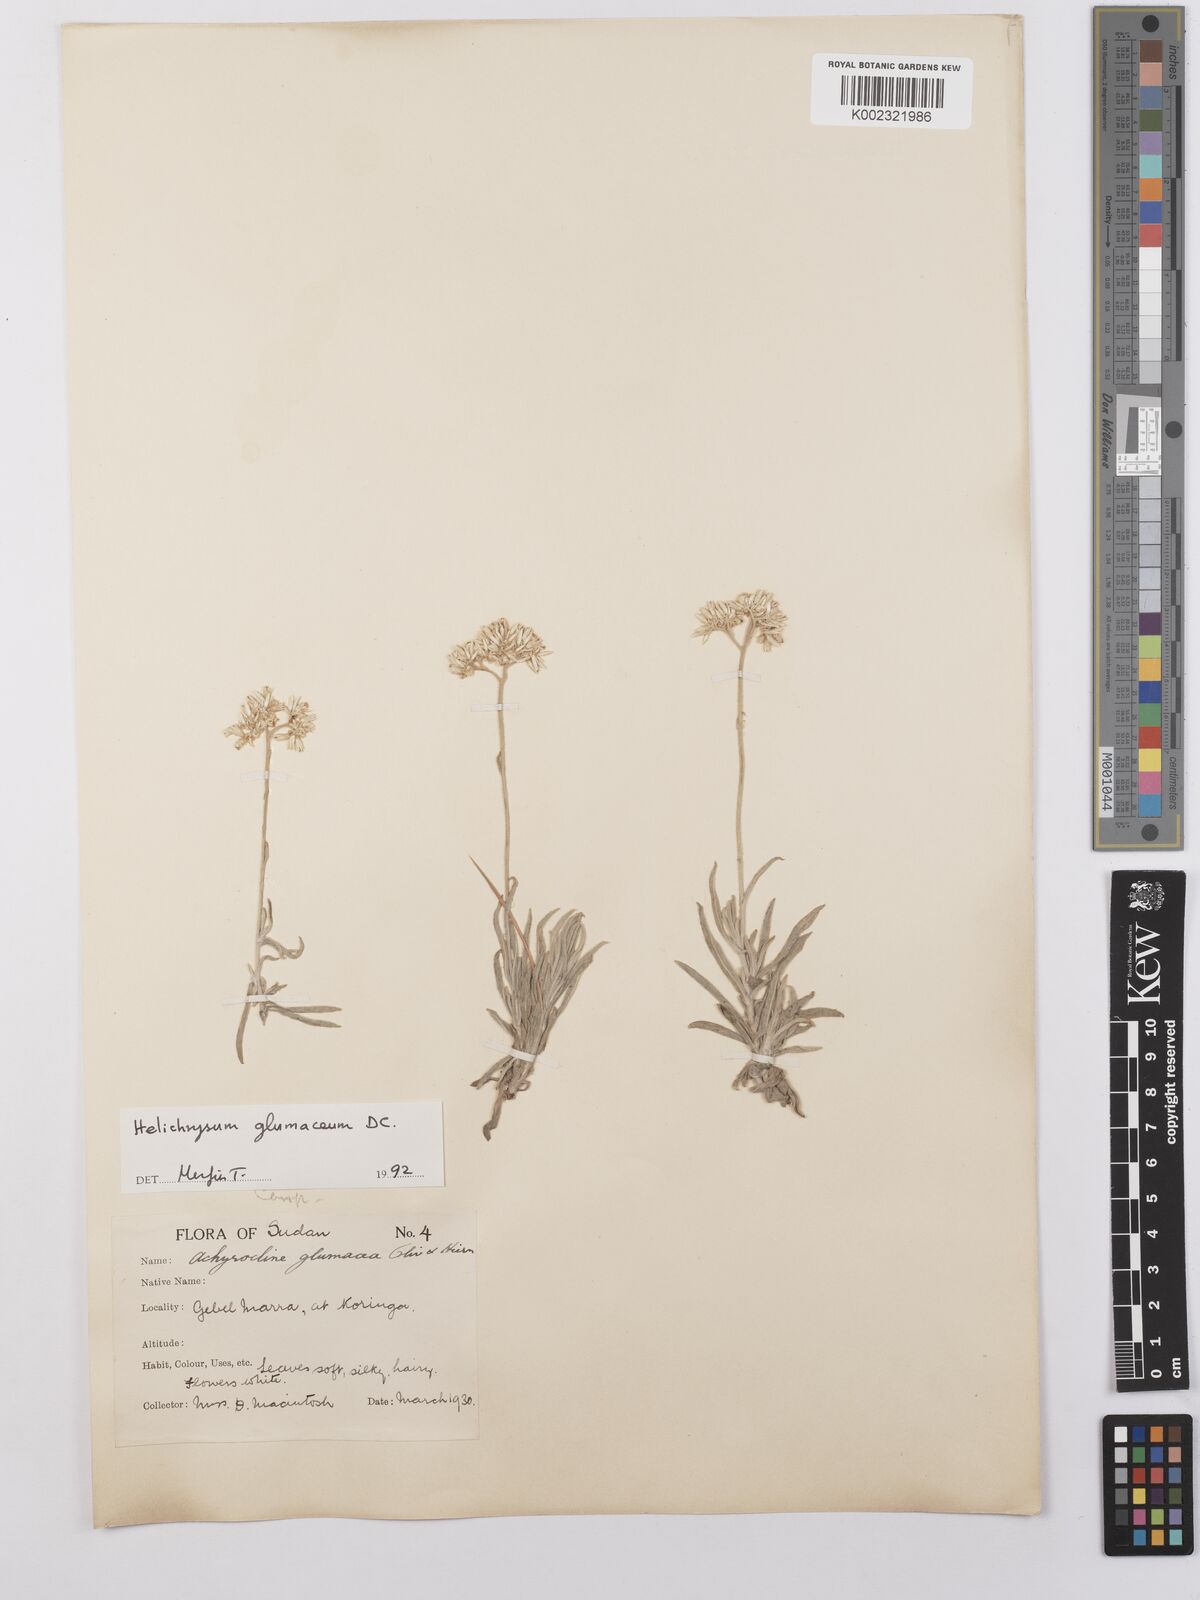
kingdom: Plantae
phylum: Tracheophyta
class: Magnoliopsida
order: Asterales
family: Asteraceae
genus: Helichrysum
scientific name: Helichrysum glumaceum
